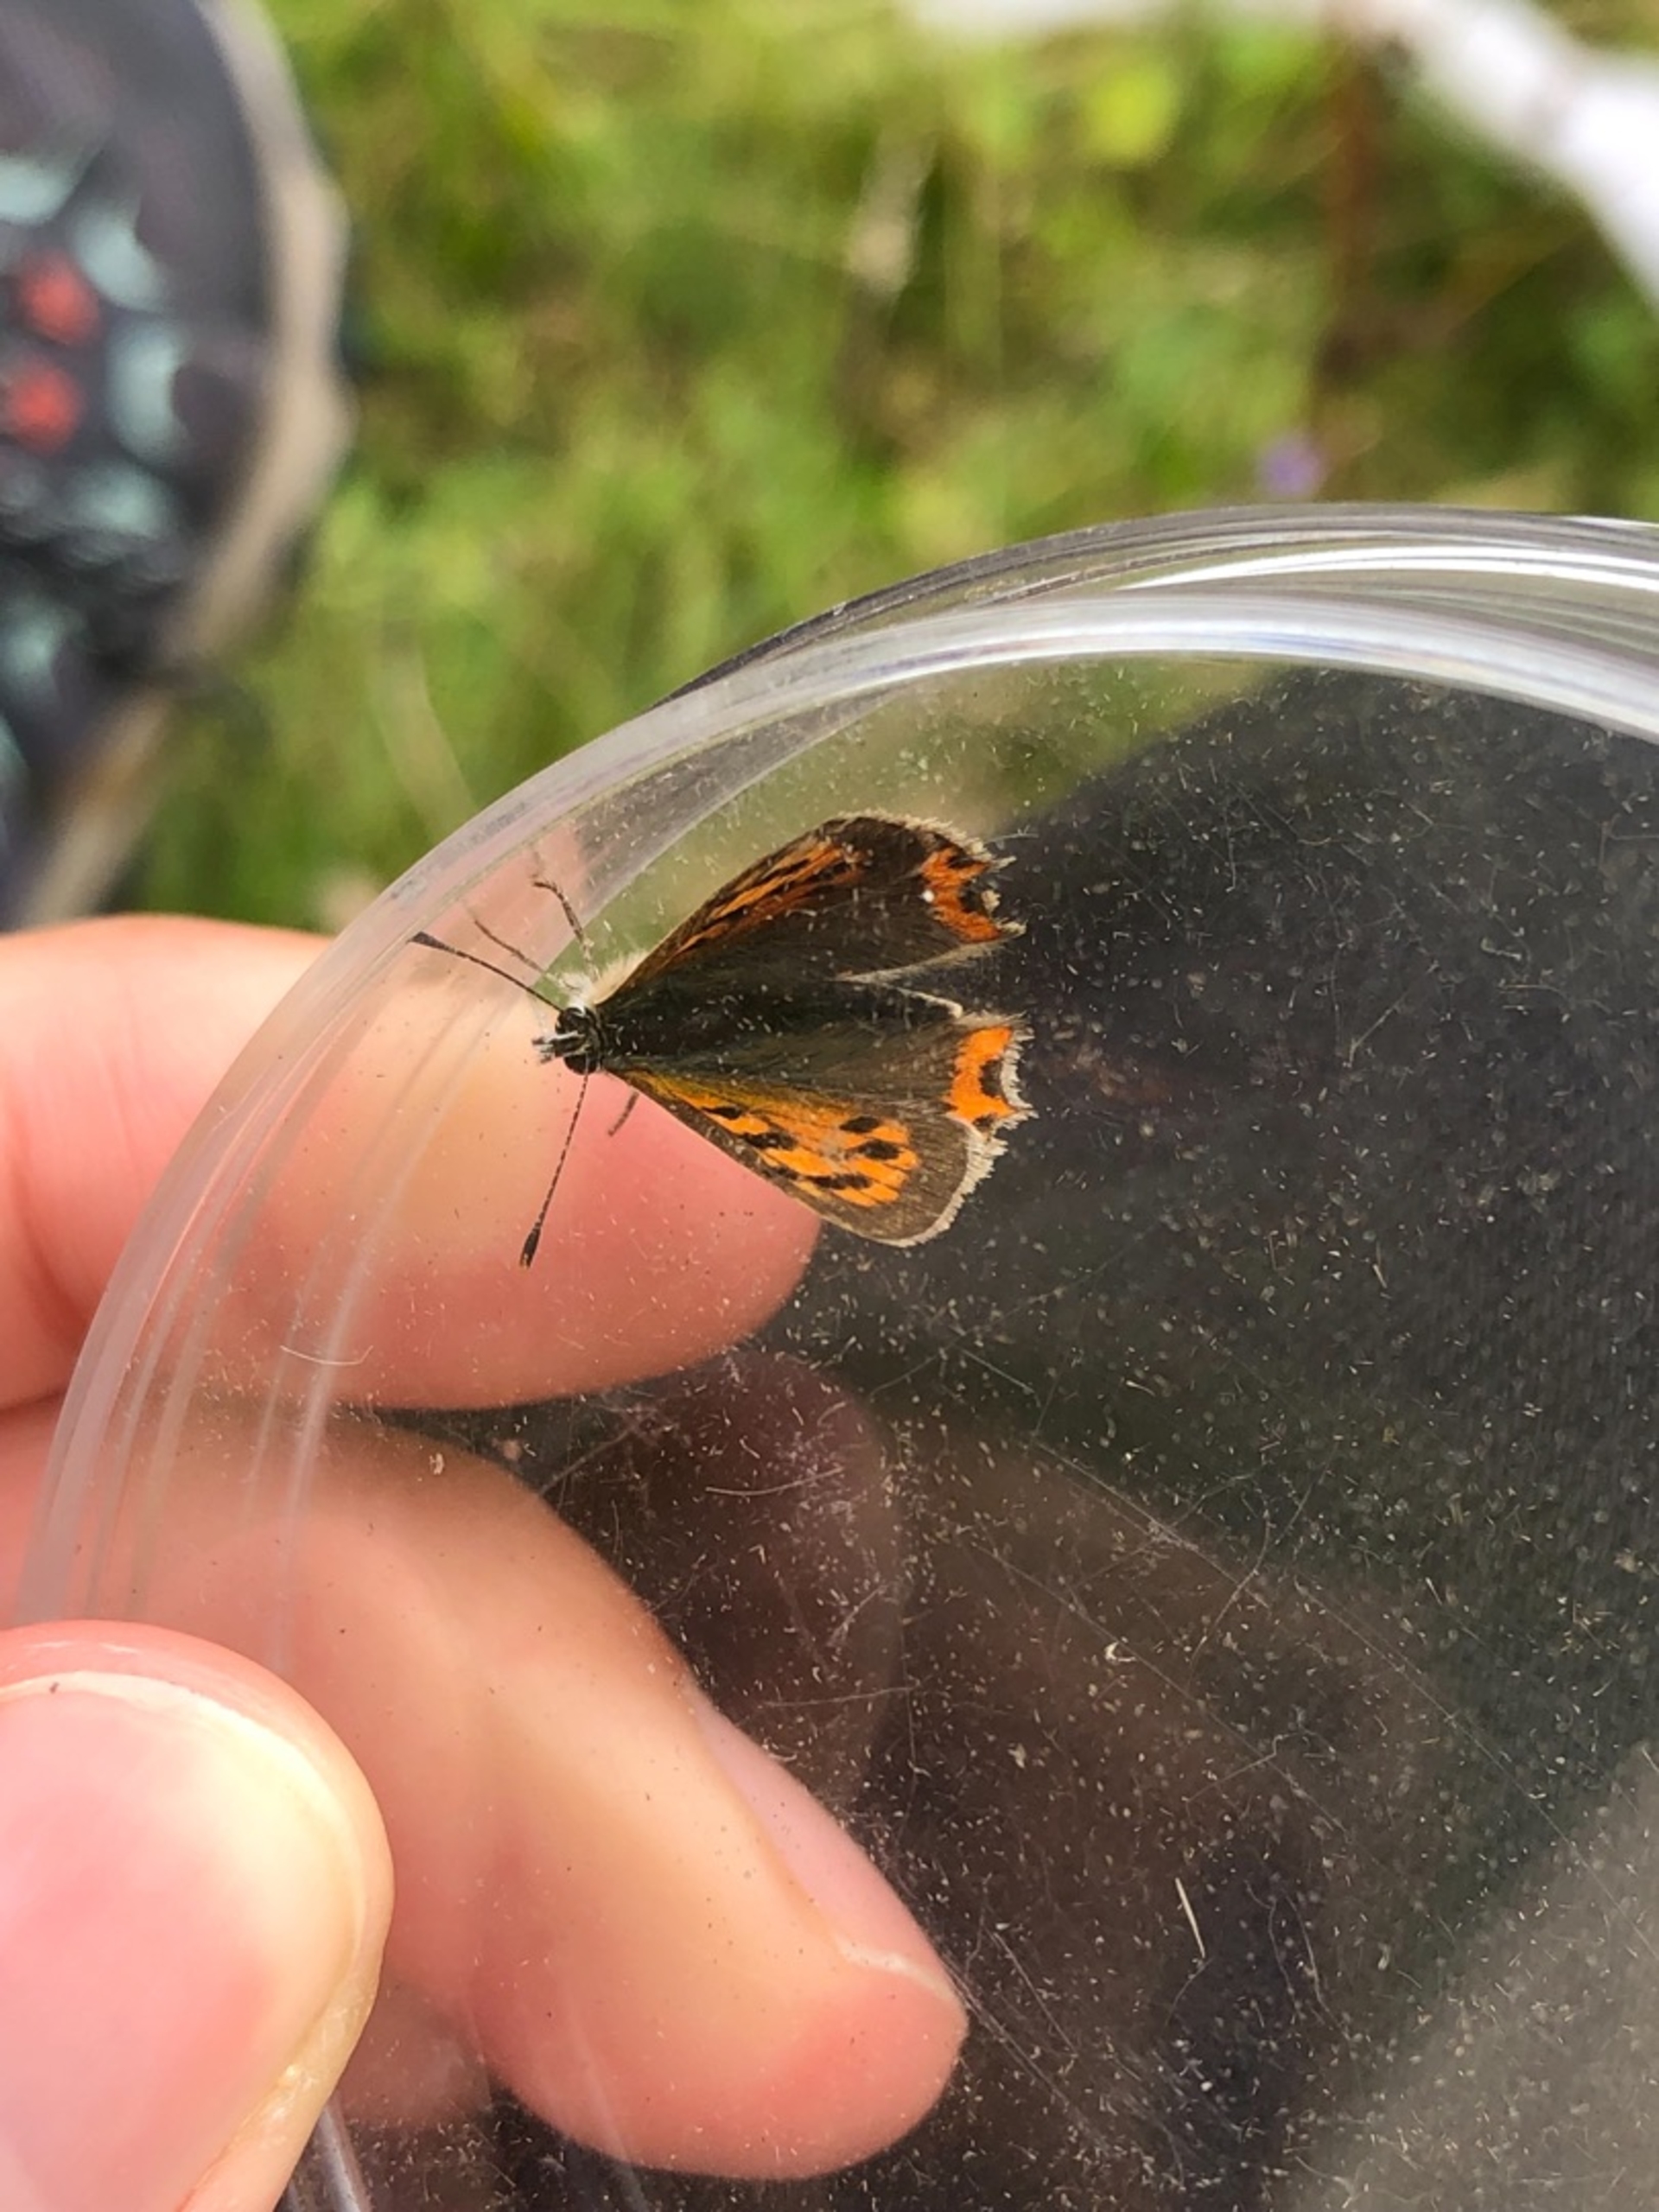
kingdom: Animalia
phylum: Arthropoda
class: Insecta
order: Lepidoptera
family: Lycaenidae
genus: Lycaena
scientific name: Lycaena phlaeas
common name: Lille ildfugl
